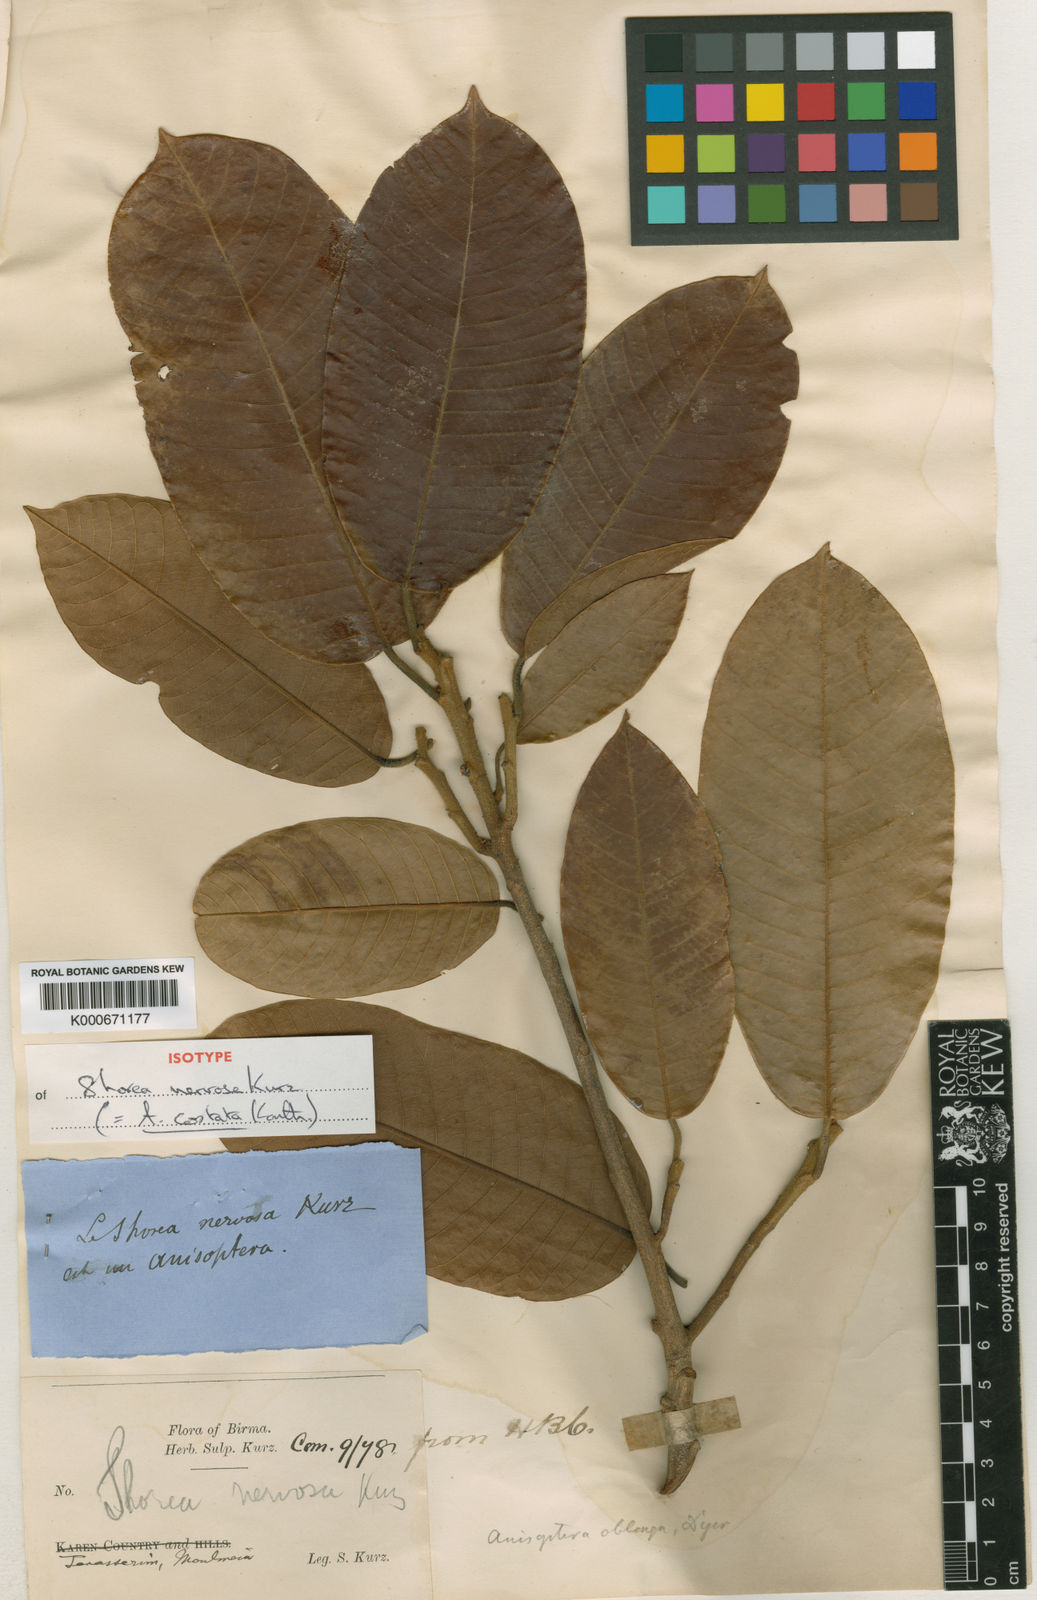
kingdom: Plantae
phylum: Tracheophyta
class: Magnoliopsida
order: Malvales
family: Dipterocarpaceae
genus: Anisoptera
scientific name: Anisoptera costata
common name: Mersawa
